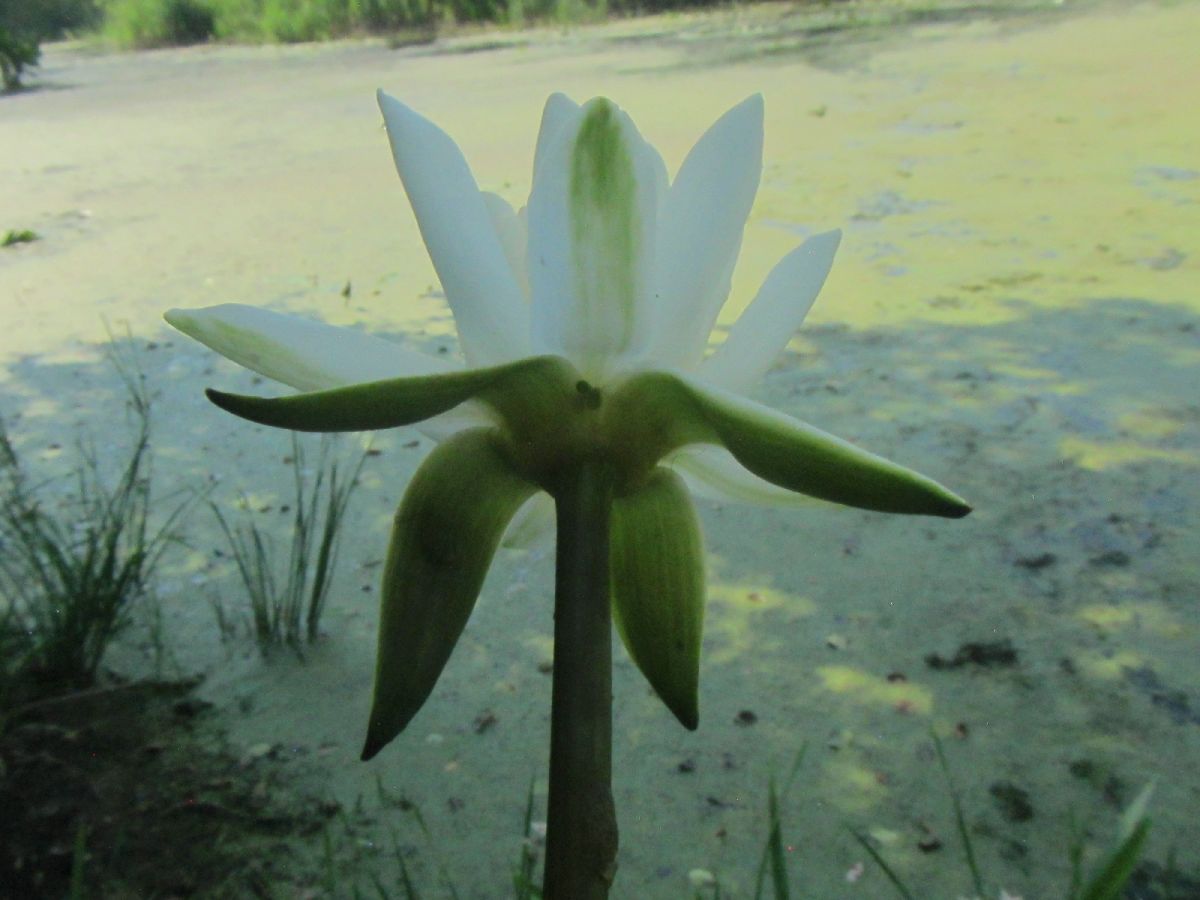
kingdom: Plantae
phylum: Tracheophyta
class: Magnoliopsida
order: Nymphaeales
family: Nymphaeaceae
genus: Nymphaea
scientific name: Nymphaea alba
